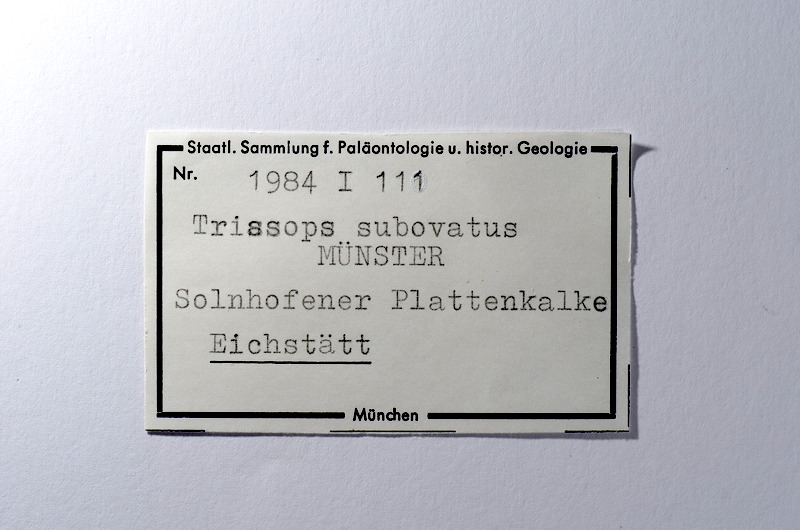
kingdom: Animalia
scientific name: Animalia
